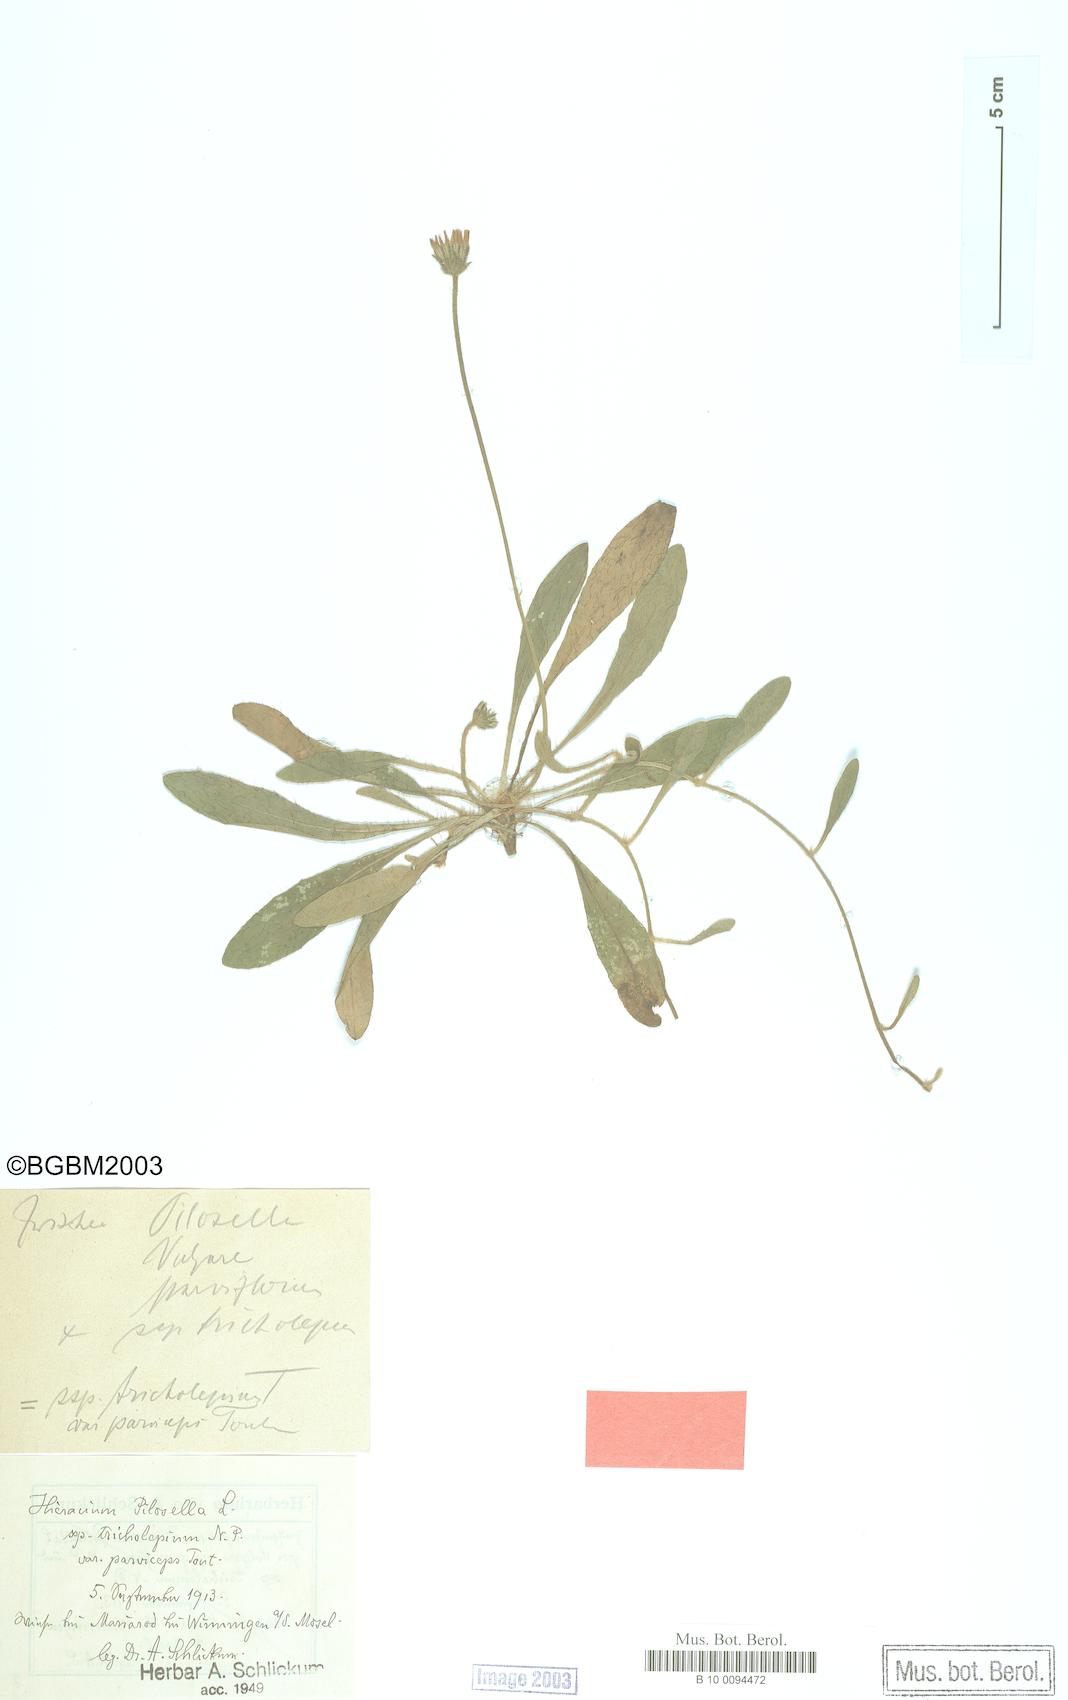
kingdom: Plantae
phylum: Tracheophyta
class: Magnoliopsida
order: Asterales
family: Asteraceae
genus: Pilosella
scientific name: Pilosella officinarum
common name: Mouse-ear hawkweed
